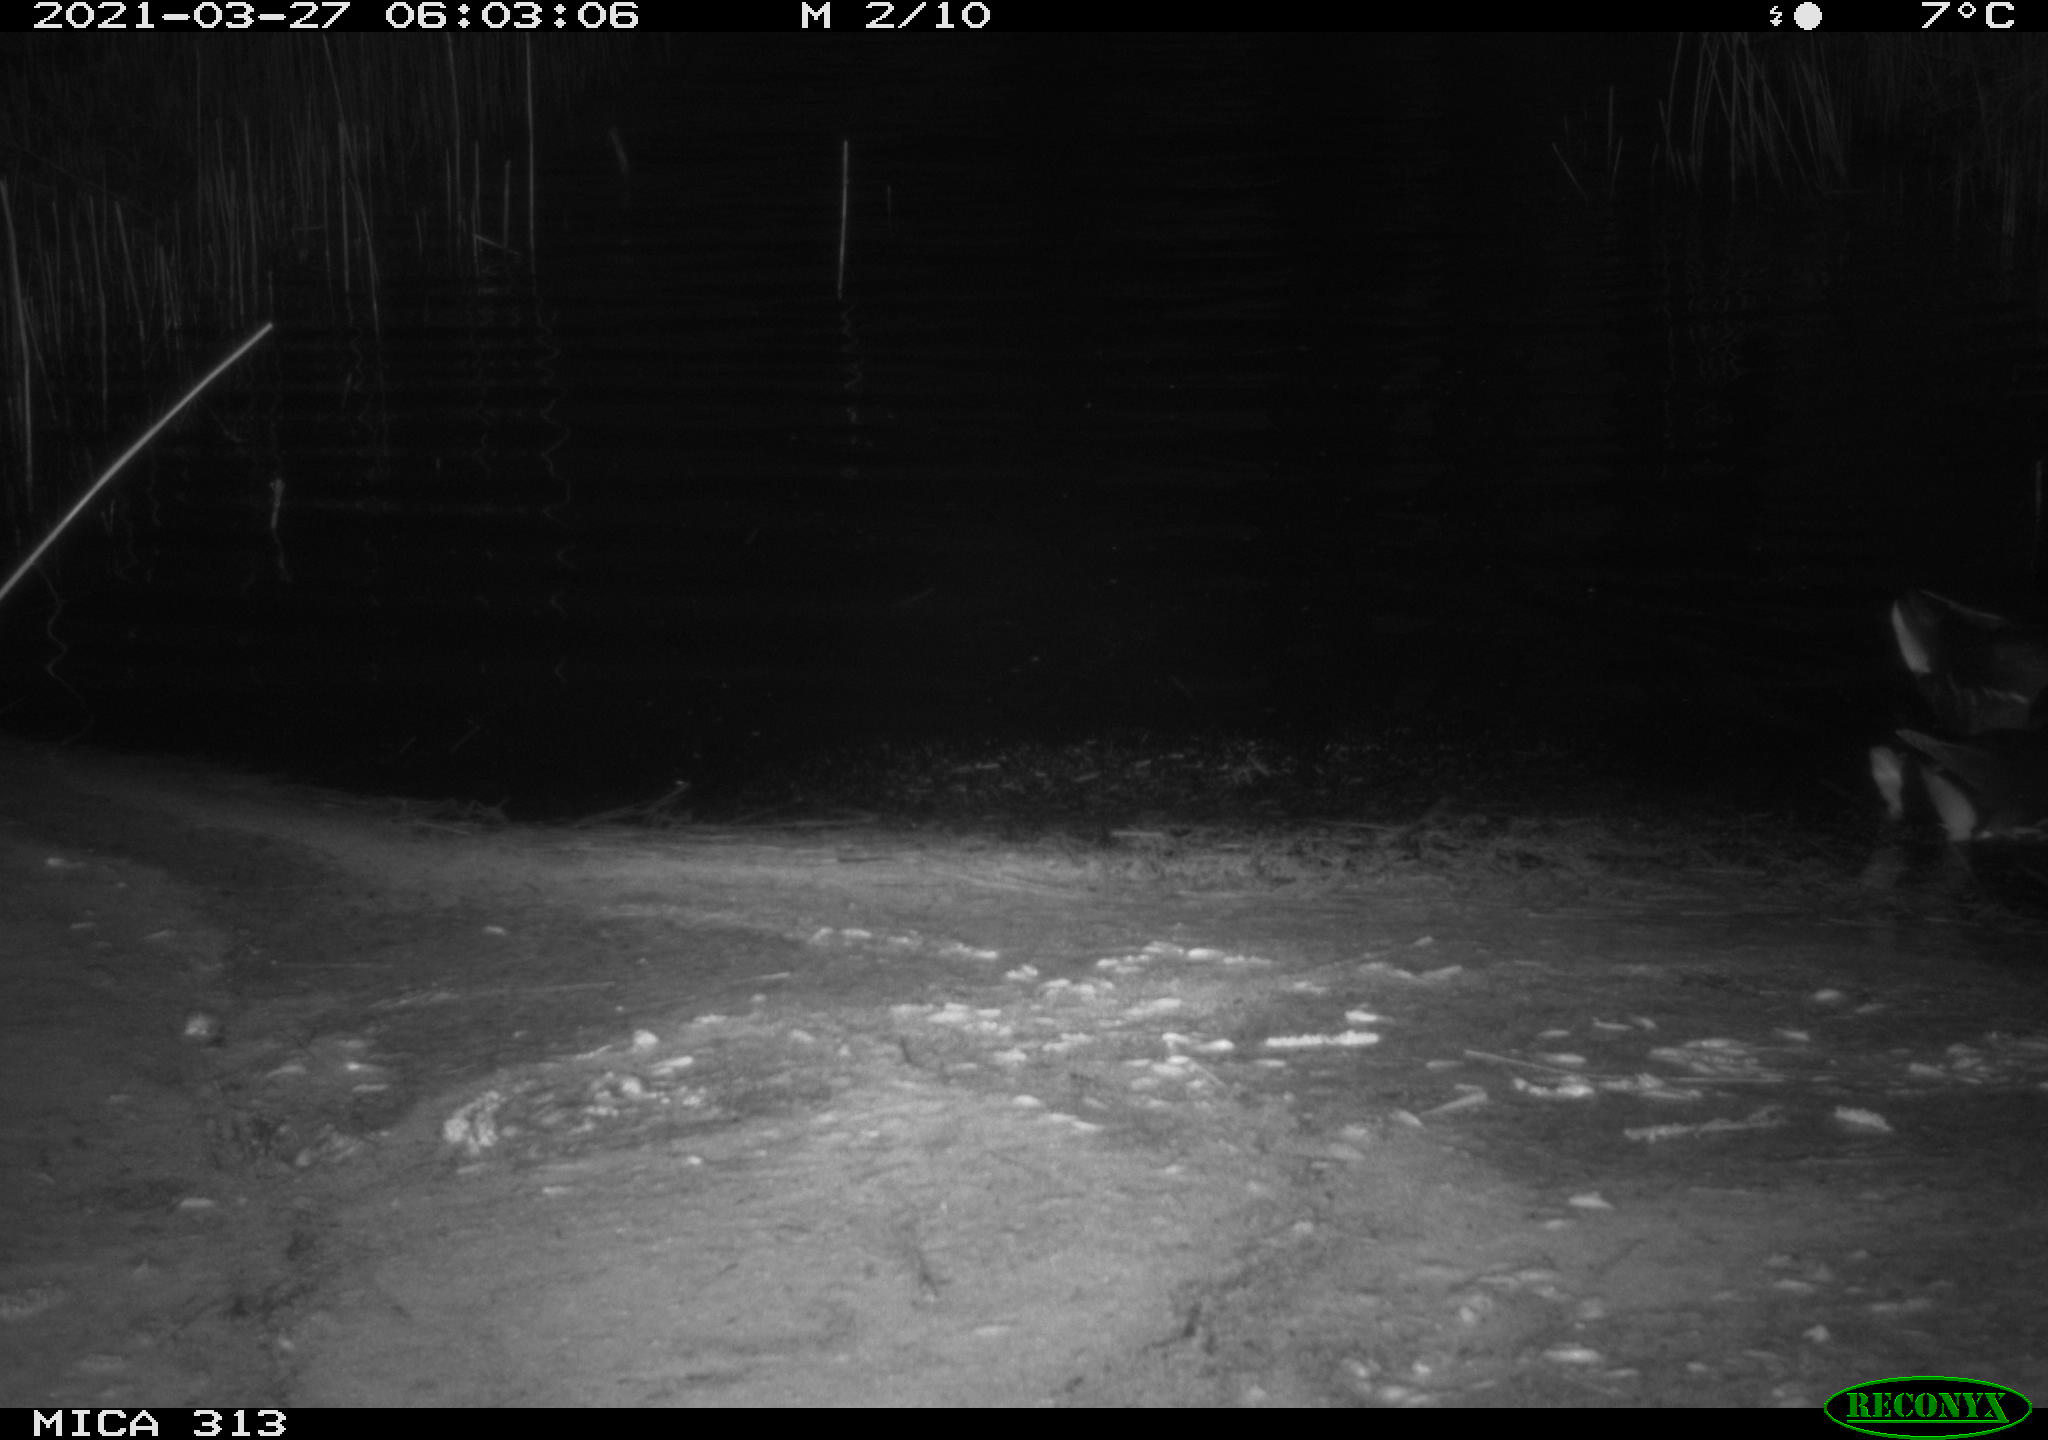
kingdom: Animalia
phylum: Chordata
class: Aves
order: Gruiformes
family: Rallidae
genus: Gallinula
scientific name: Gallinula chloropus
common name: Common moorhen
